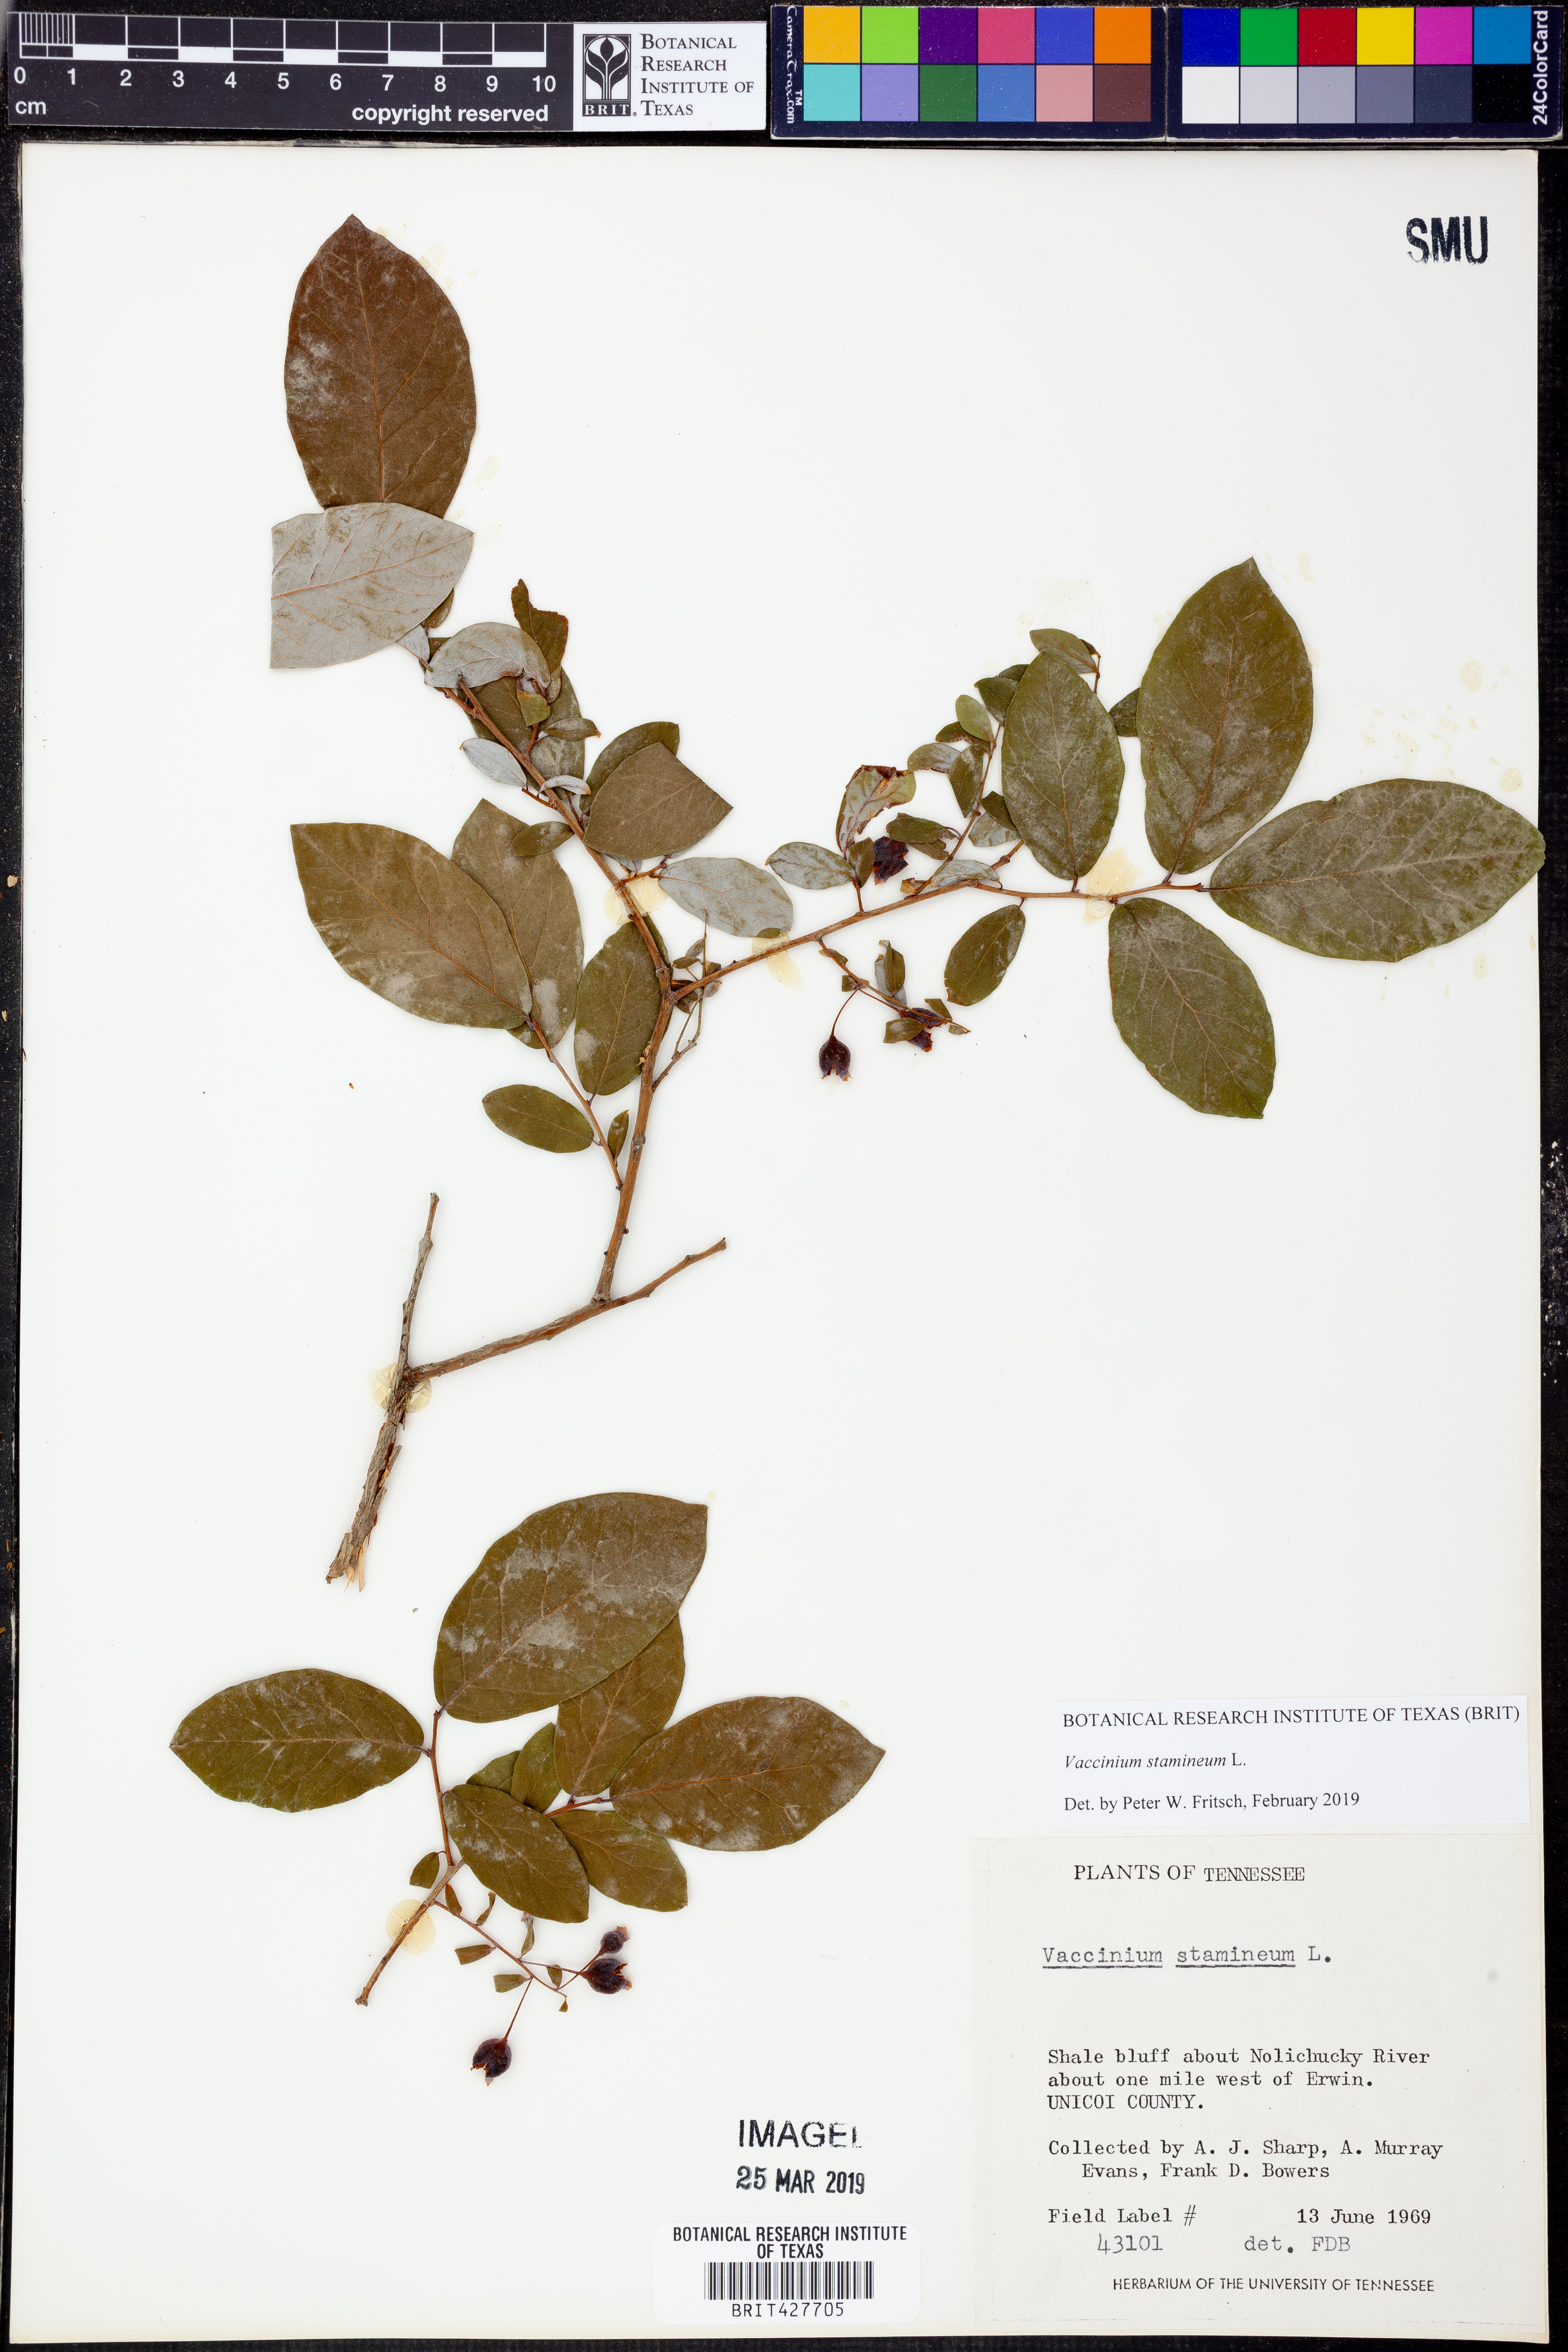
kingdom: Plantae
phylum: Tracheophyta
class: Magnoliopsida
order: Ericales
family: Ericaceae
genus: Vaccinium
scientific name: Vaccinium stamineum
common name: Deerberry
